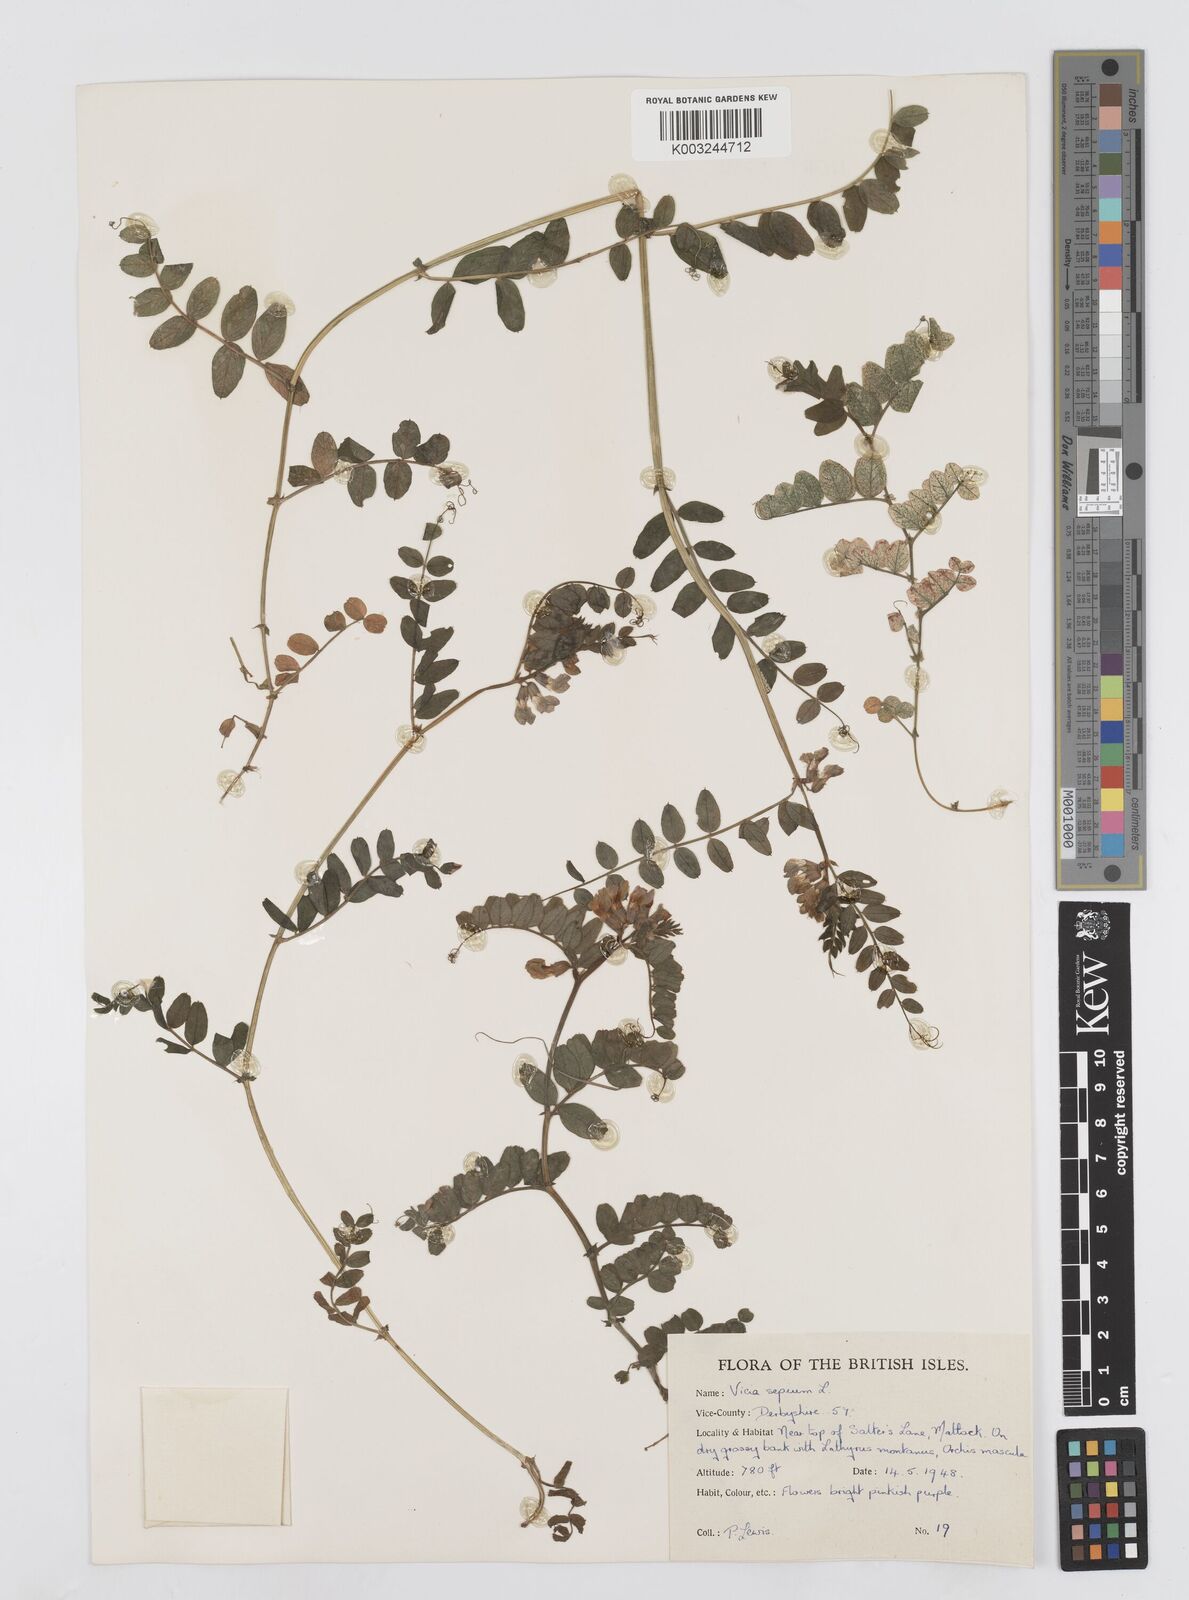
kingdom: Plantae
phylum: Tracheophyta
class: Magnoliopsida
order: Fabales
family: Fabaceae
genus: Vicia
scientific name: Vicia sepium
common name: Bush vetch
